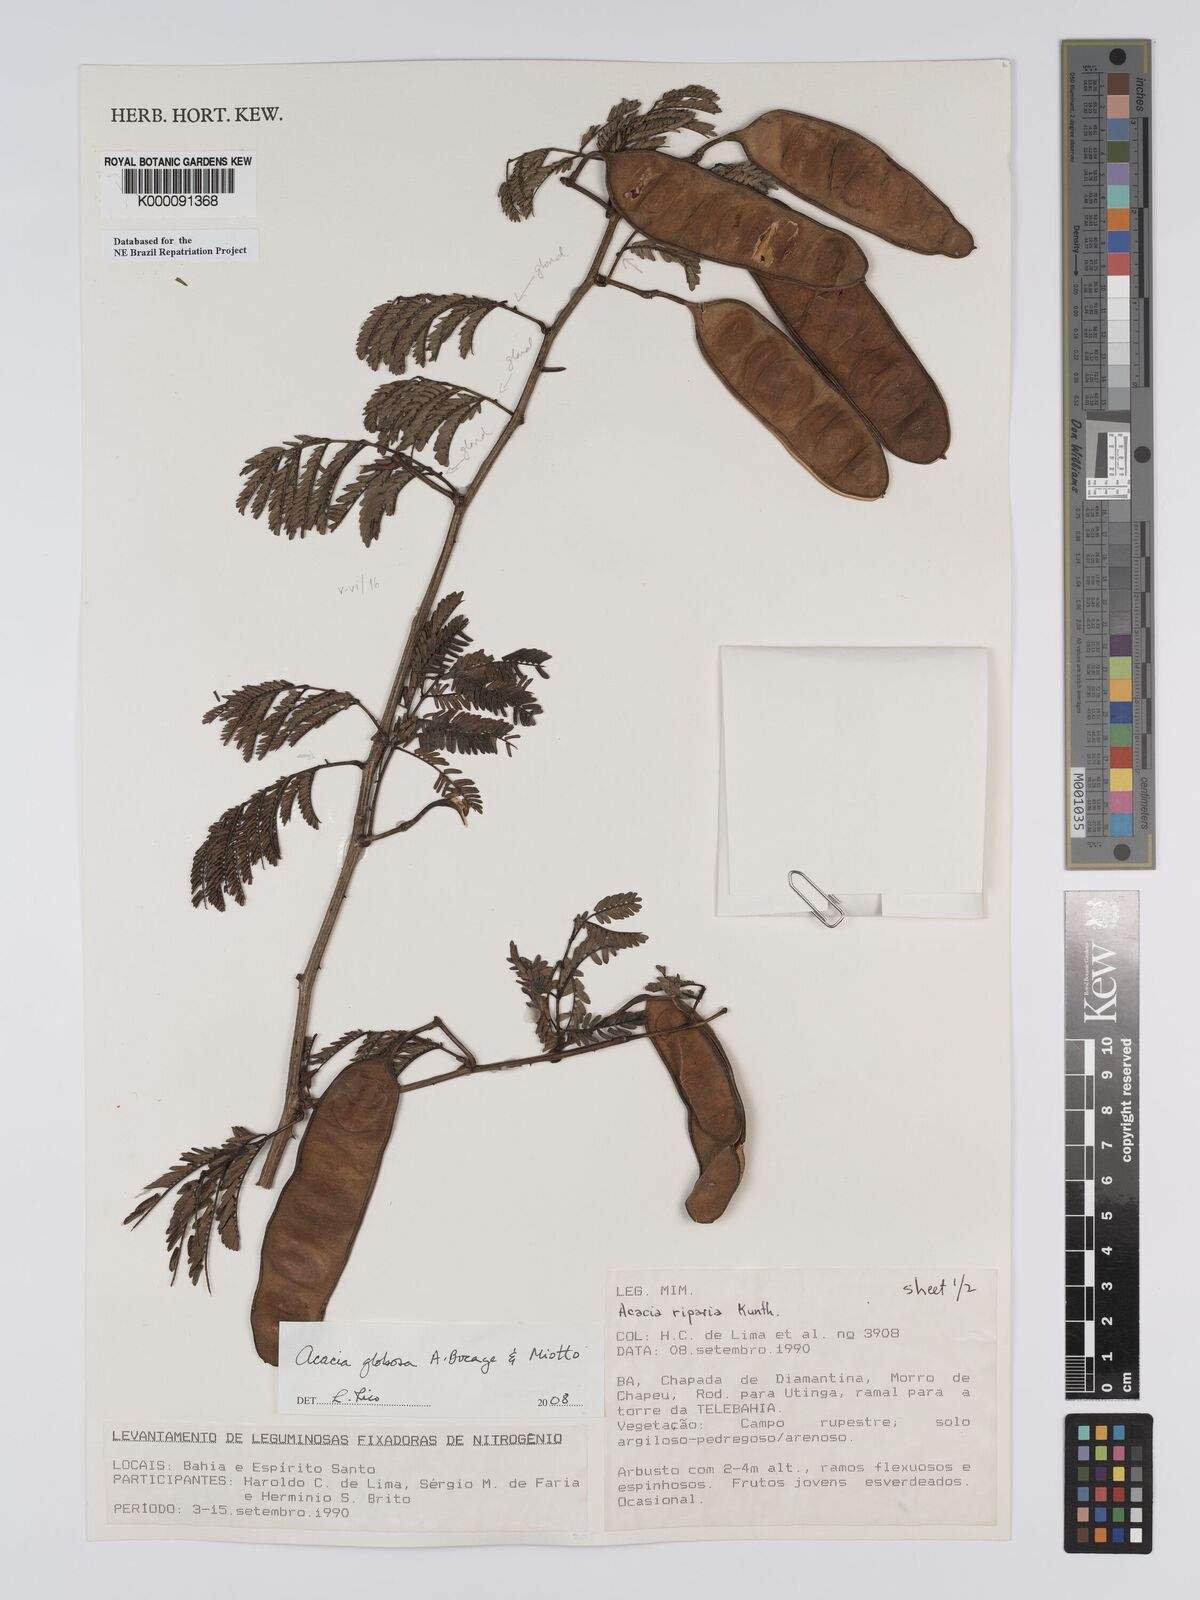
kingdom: Plantae
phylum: Tracheophyta
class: Magnoliopsida
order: Fabales
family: Fabaceae
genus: Senegalia
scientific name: Senegalia globosa
